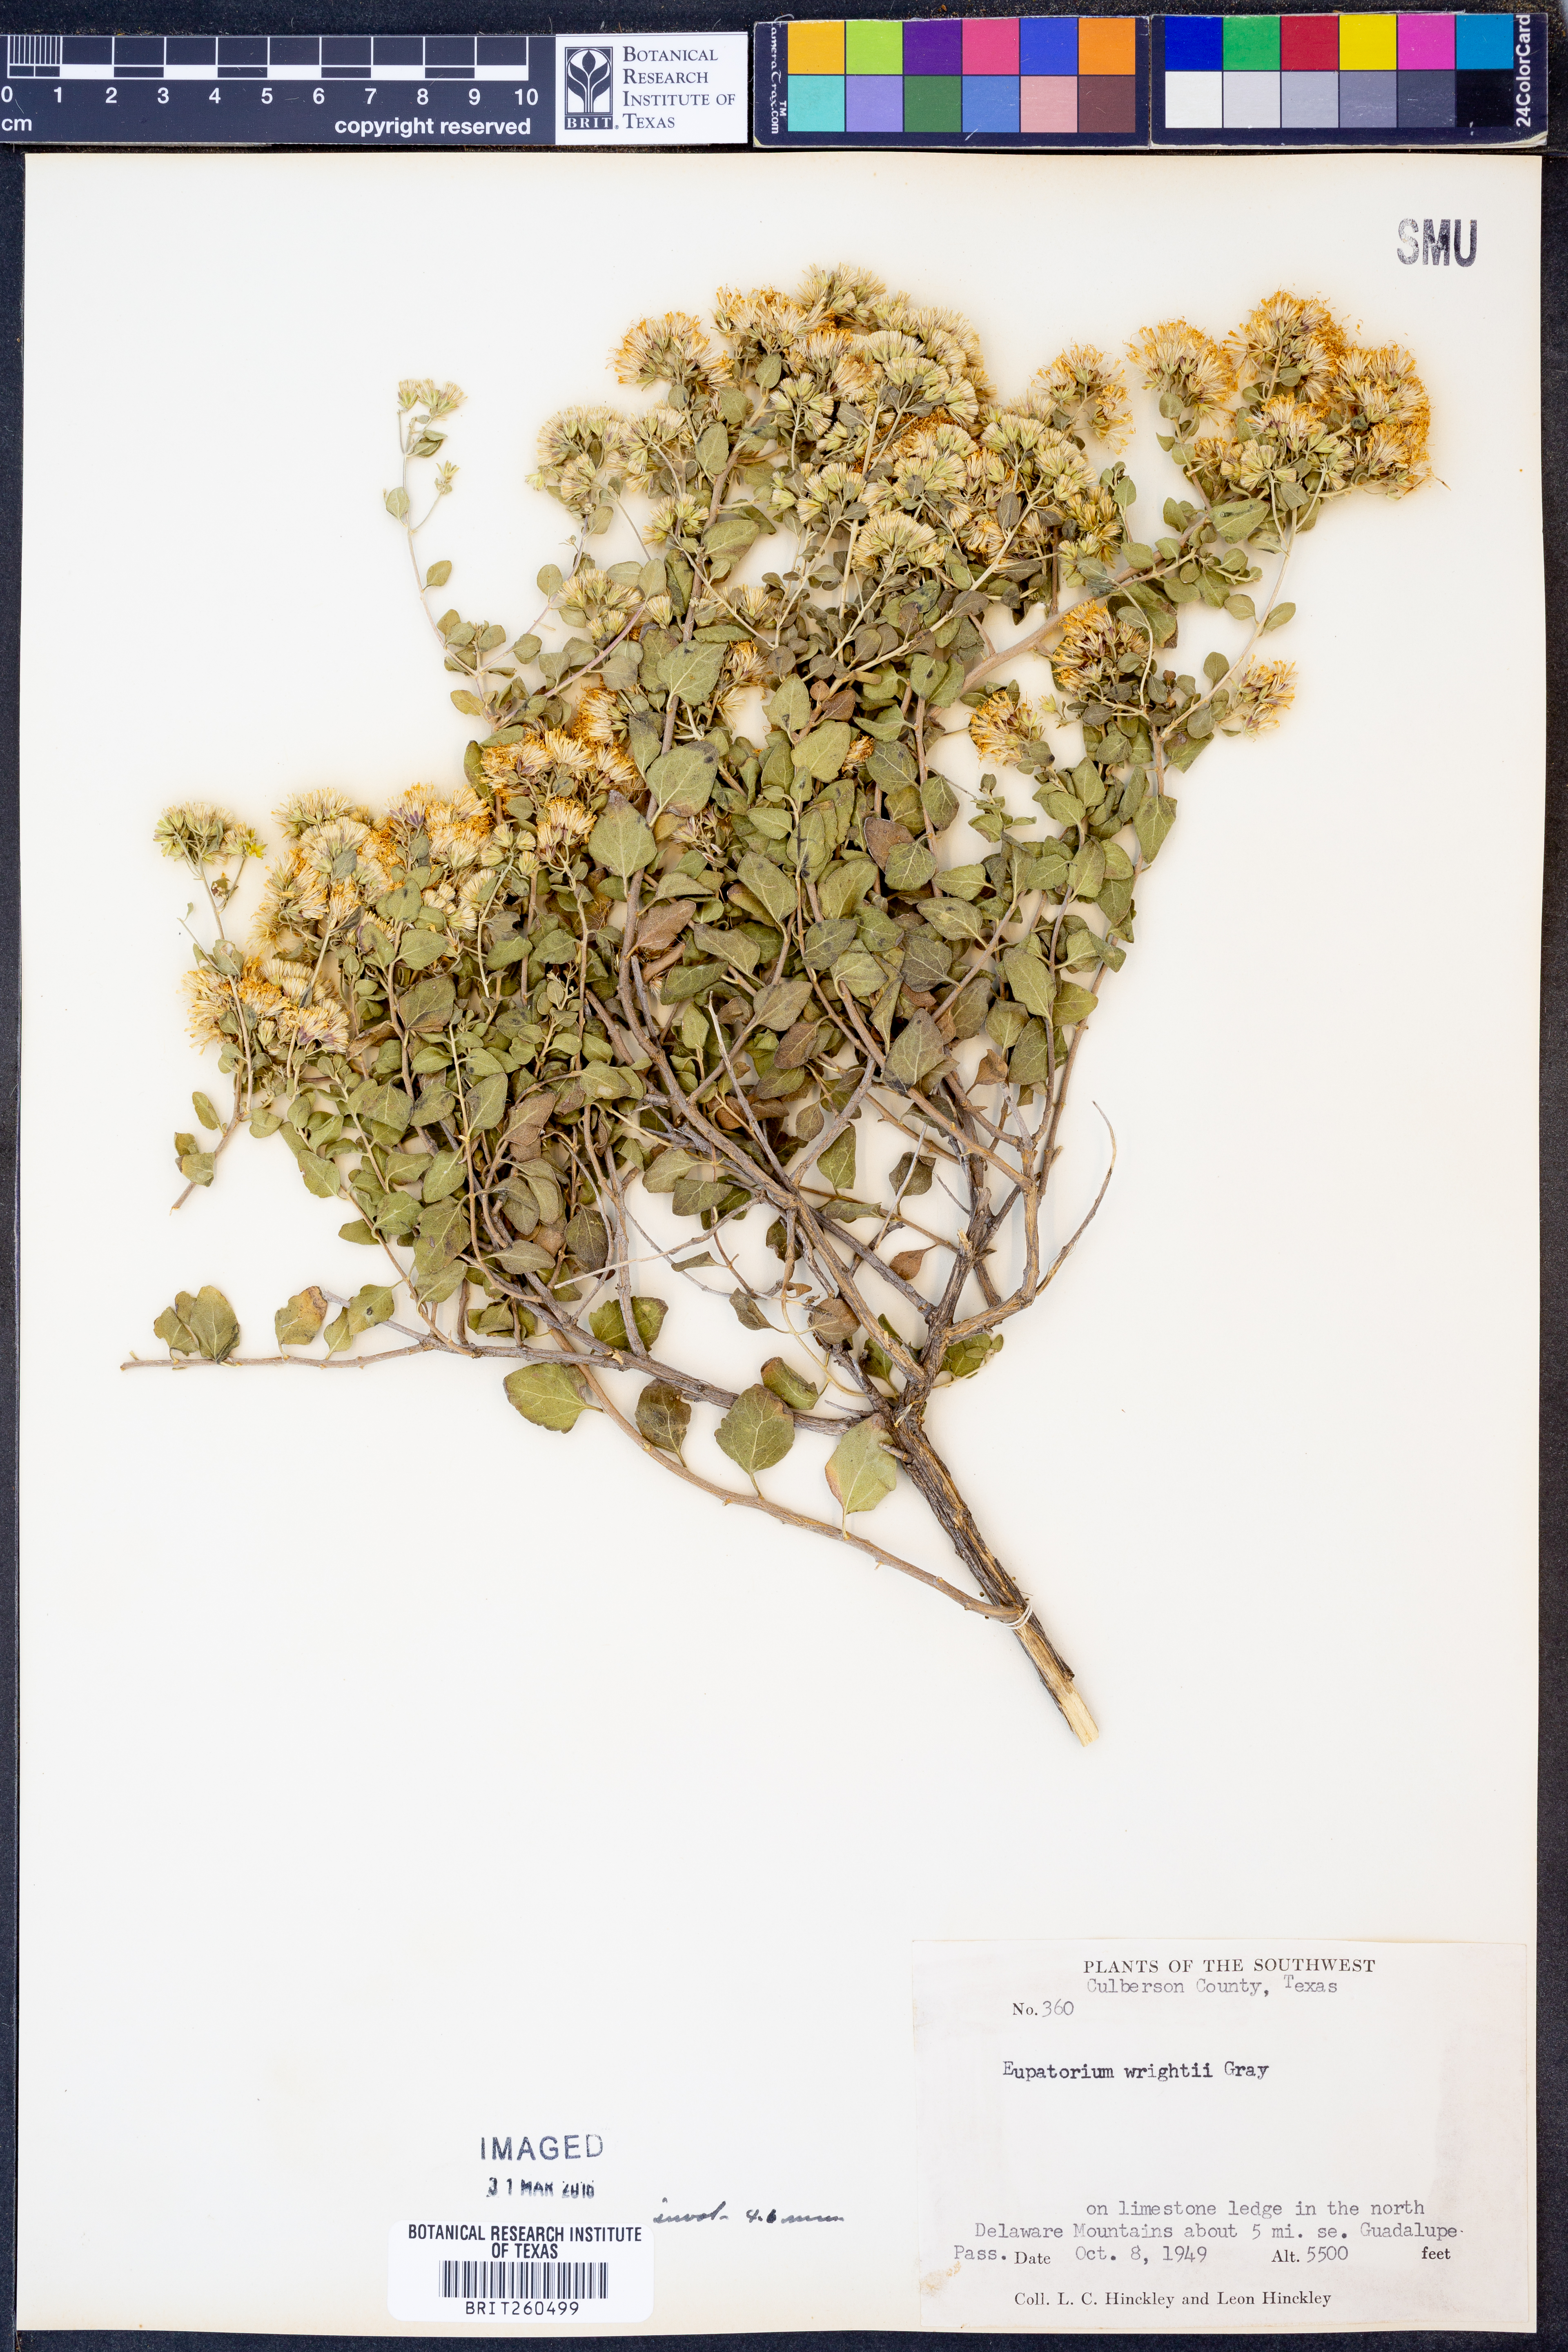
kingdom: Plantae
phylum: Tracheophyta
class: Magnoliopsida
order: Asterales
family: Asteraceae
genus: Ageratina
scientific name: Ageratina wrightii
